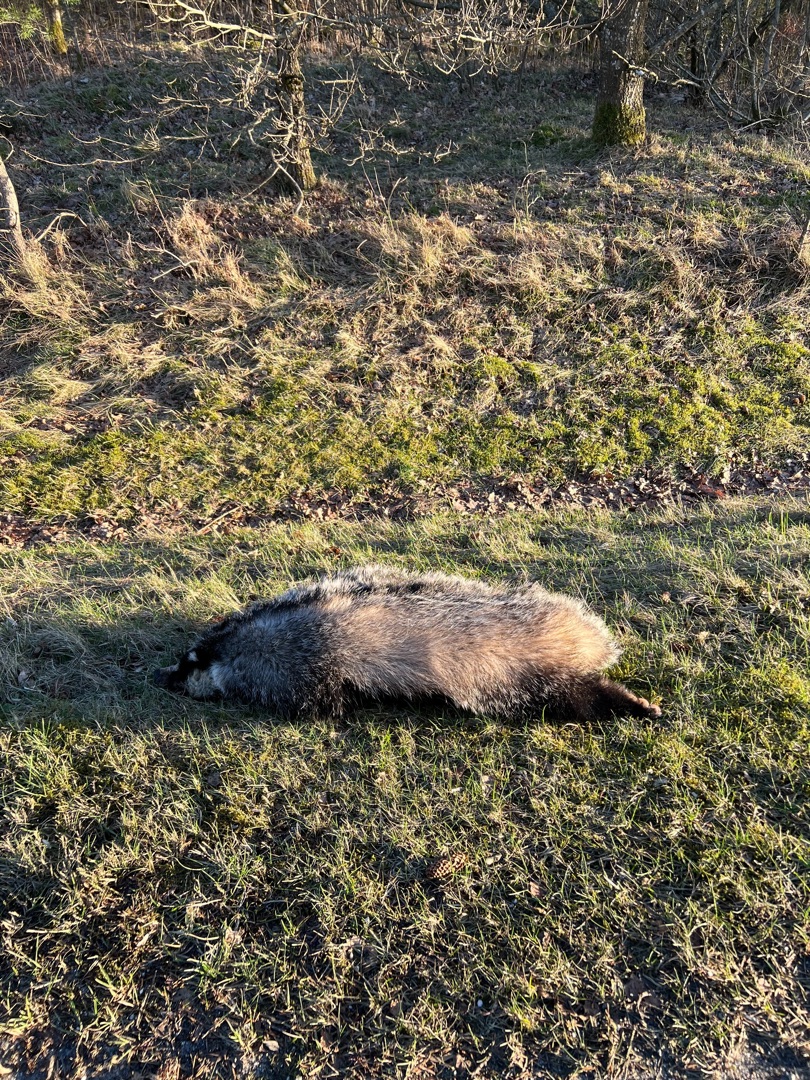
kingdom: Animalia
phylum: Chordata
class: Mammalia
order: Carnivora
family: Mustelidae
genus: Meles
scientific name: Meles meles
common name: Grævling
